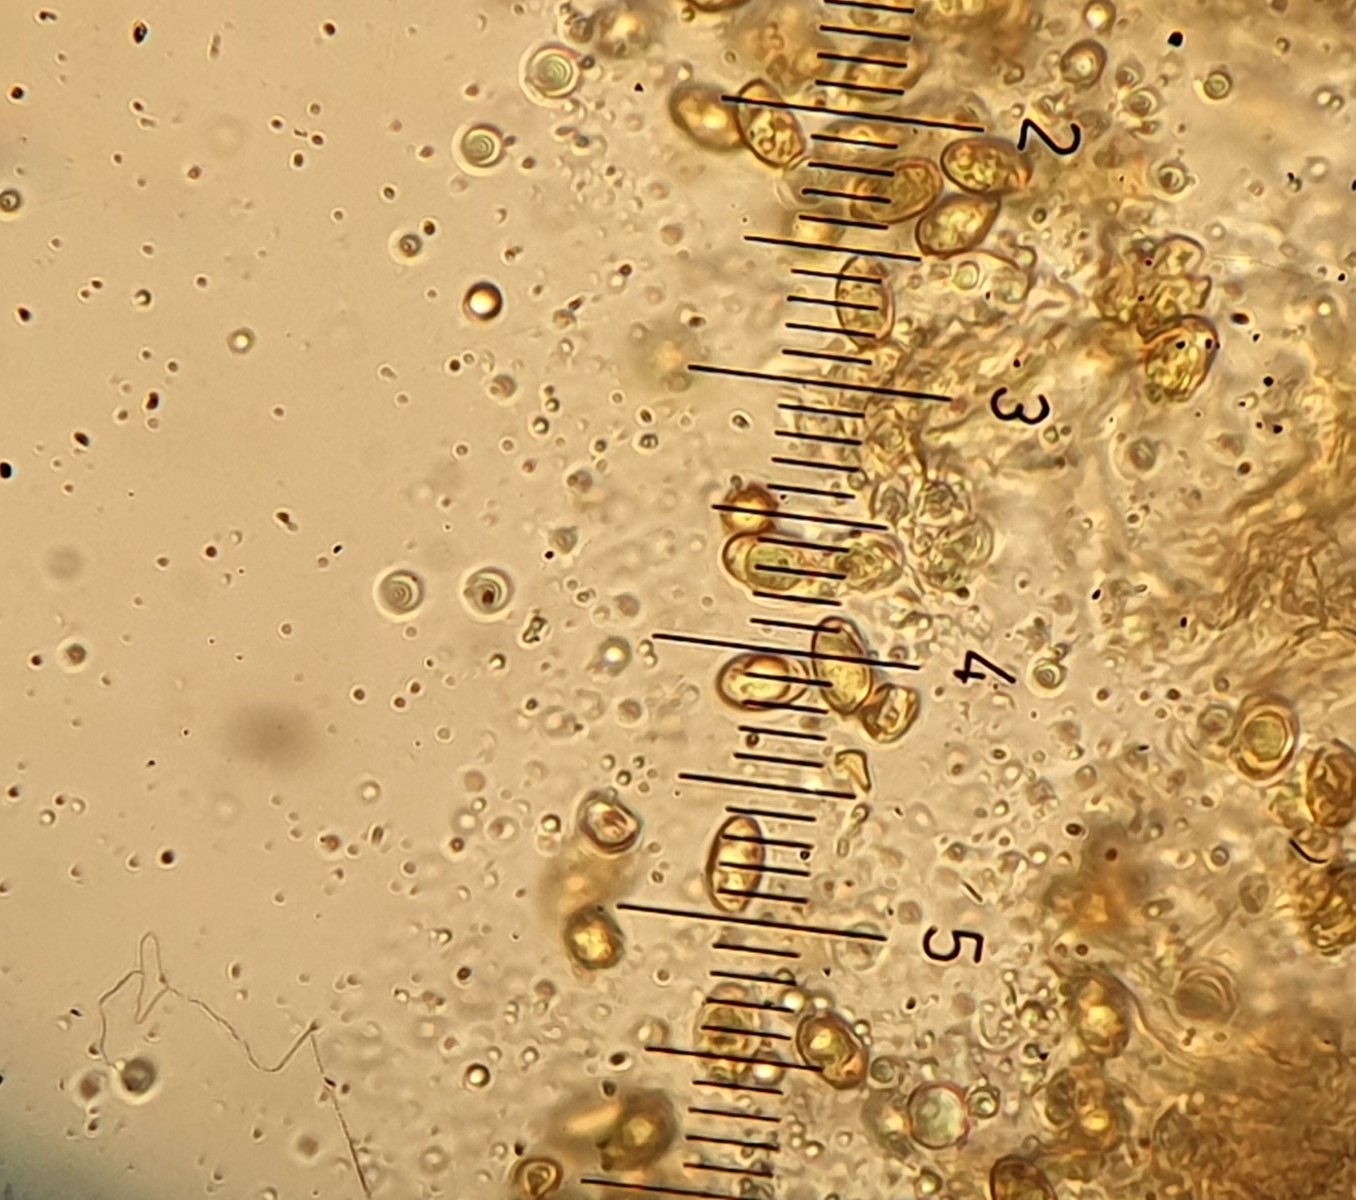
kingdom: Fungi
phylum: Basidiomycota
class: Agaricomycetes
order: Agaricales
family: Cortinariaceae
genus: Cortinarius
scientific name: Cortinarius hirtus
